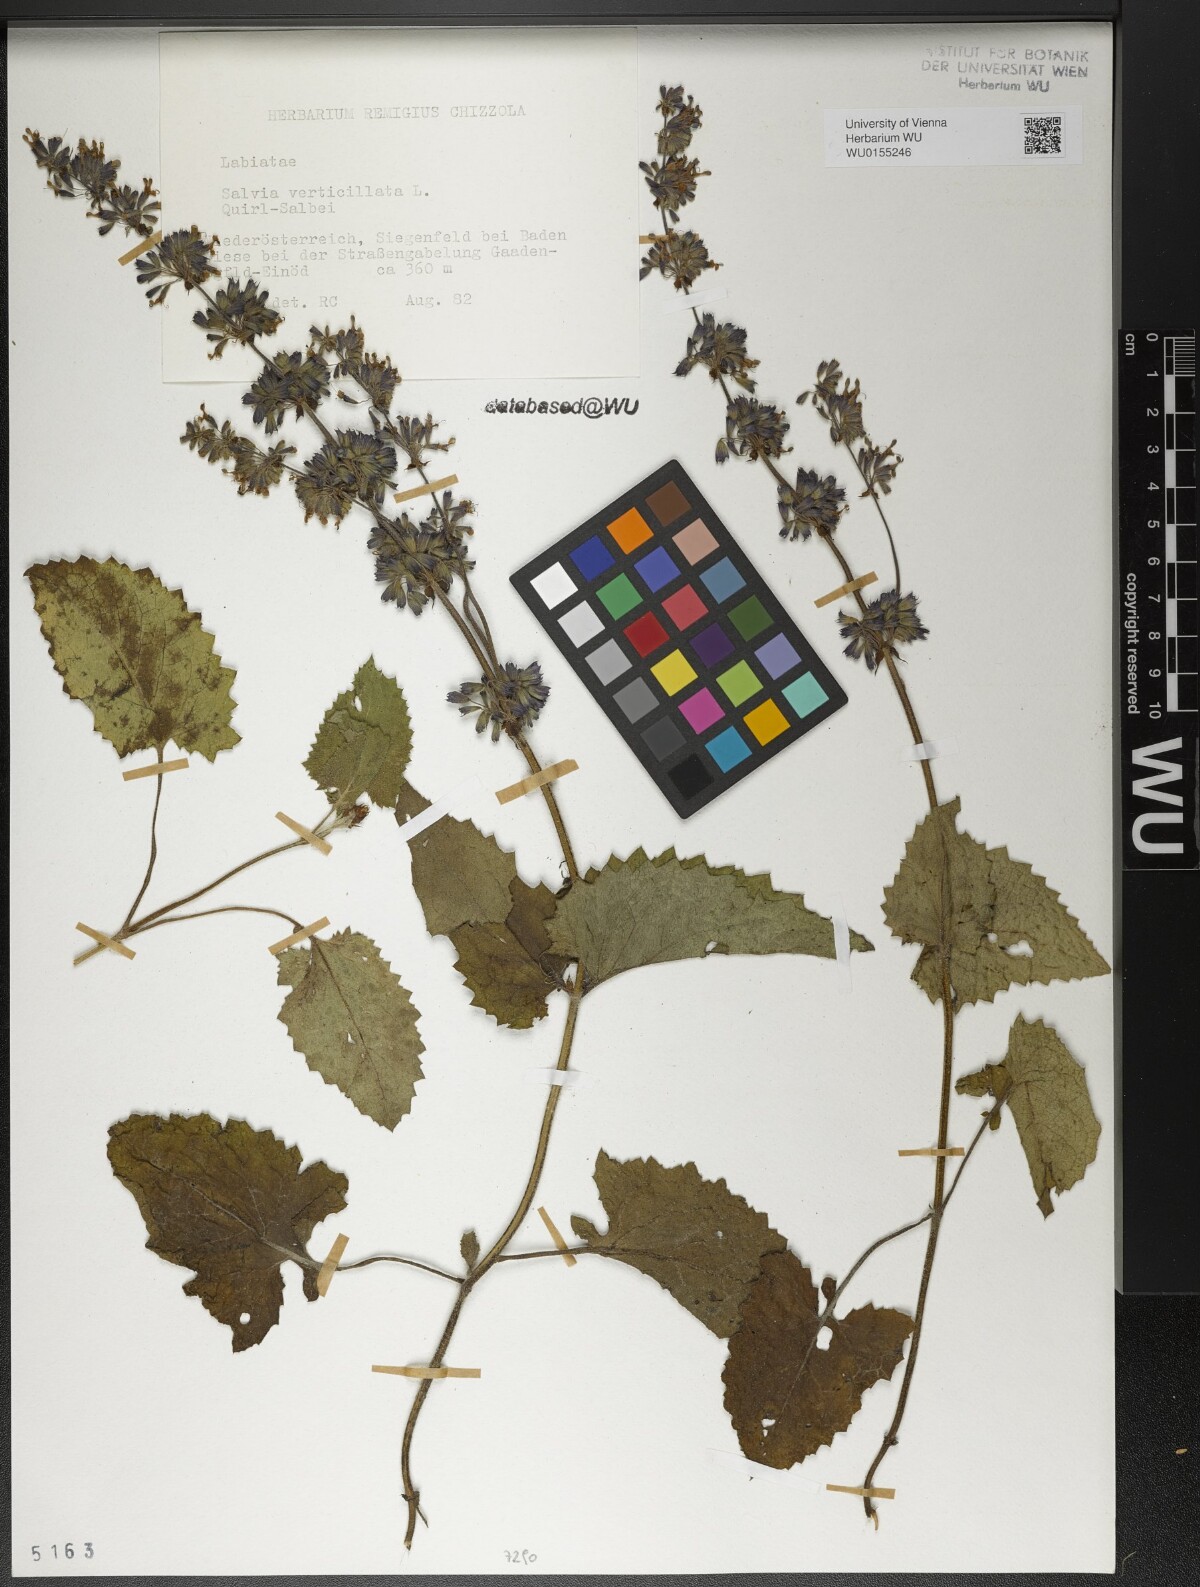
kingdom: Plantae
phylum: Tracheophyta
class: Magnoliopsida
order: Lamiales
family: Lamiaceae
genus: Salvia
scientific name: Salvia verticillata
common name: Whorled clary
